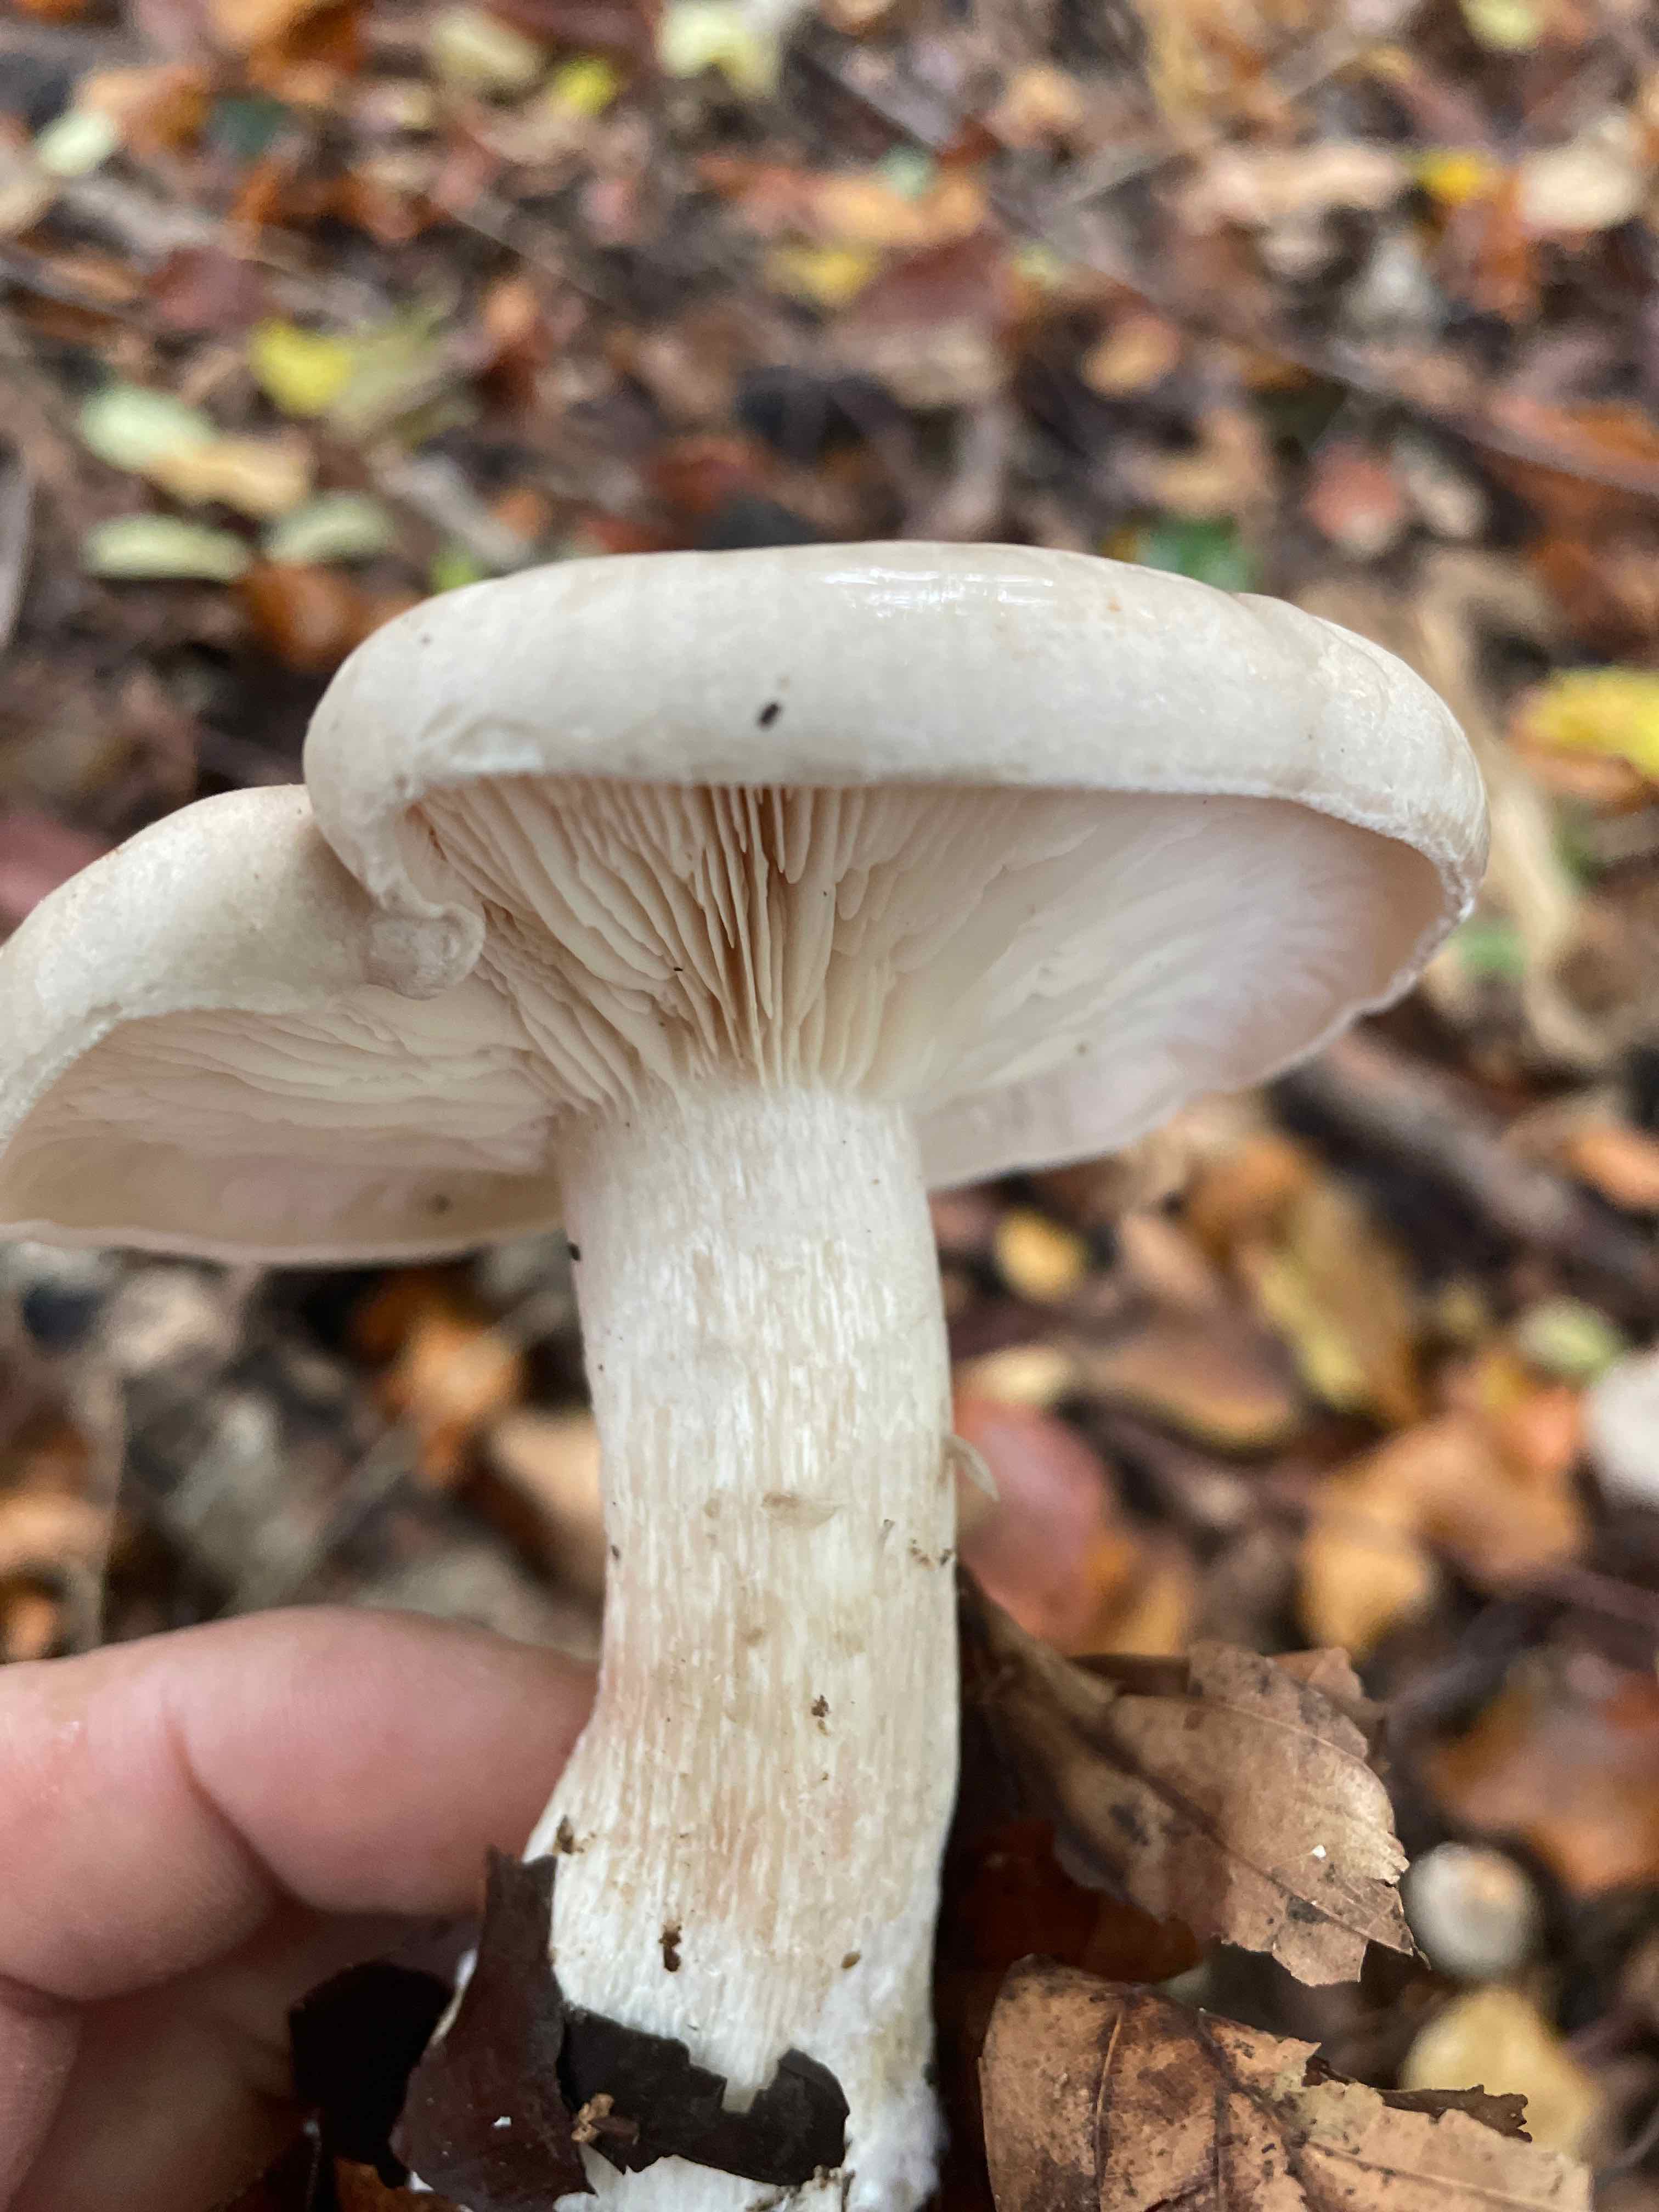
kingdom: Fungi
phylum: Basidiomycota
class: Agaricomycetes
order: Agaricales
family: Tricholomataceae
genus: Clitocybe
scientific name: Clitocybe nebularis
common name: tåge-tragthat
